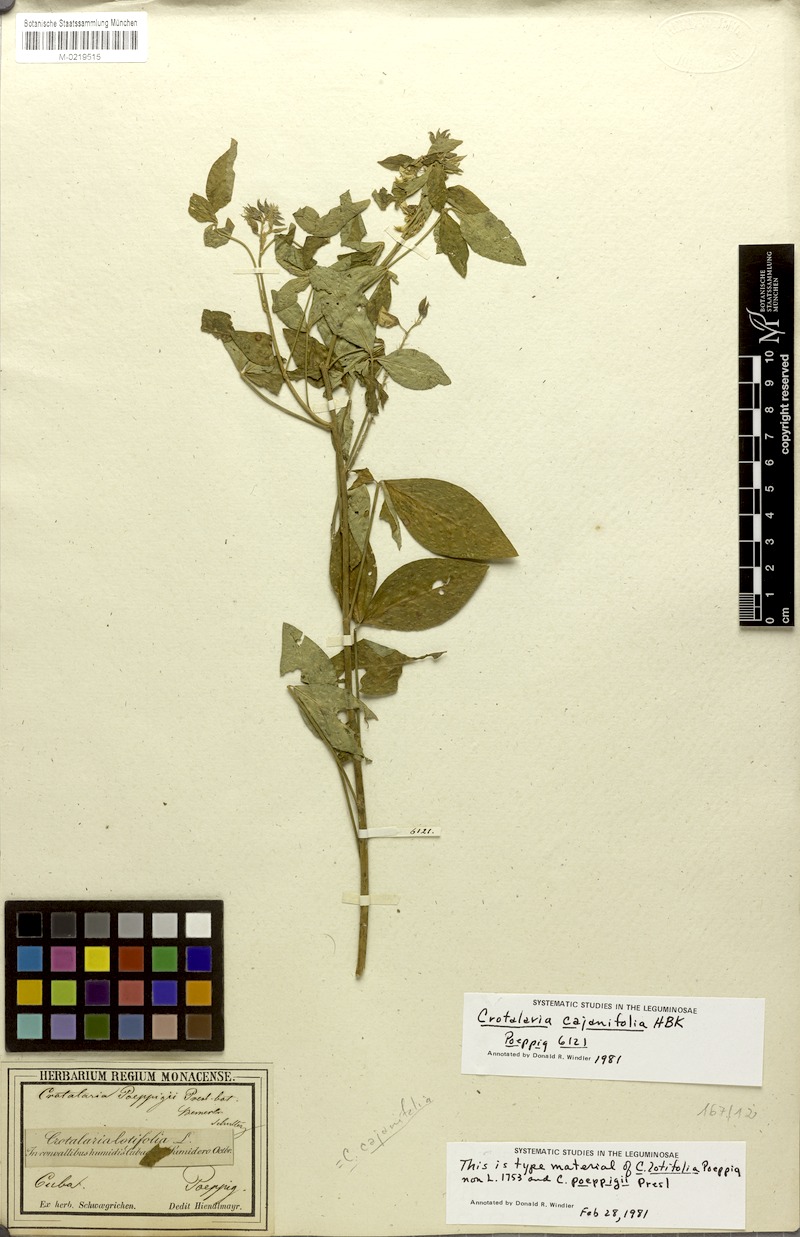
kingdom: Plantae
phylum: Tracheophyta
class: Magnoliopsida
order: Fabales
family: Fabaceae
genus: Crotalaria
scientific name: Crotalaria cajanifolia
